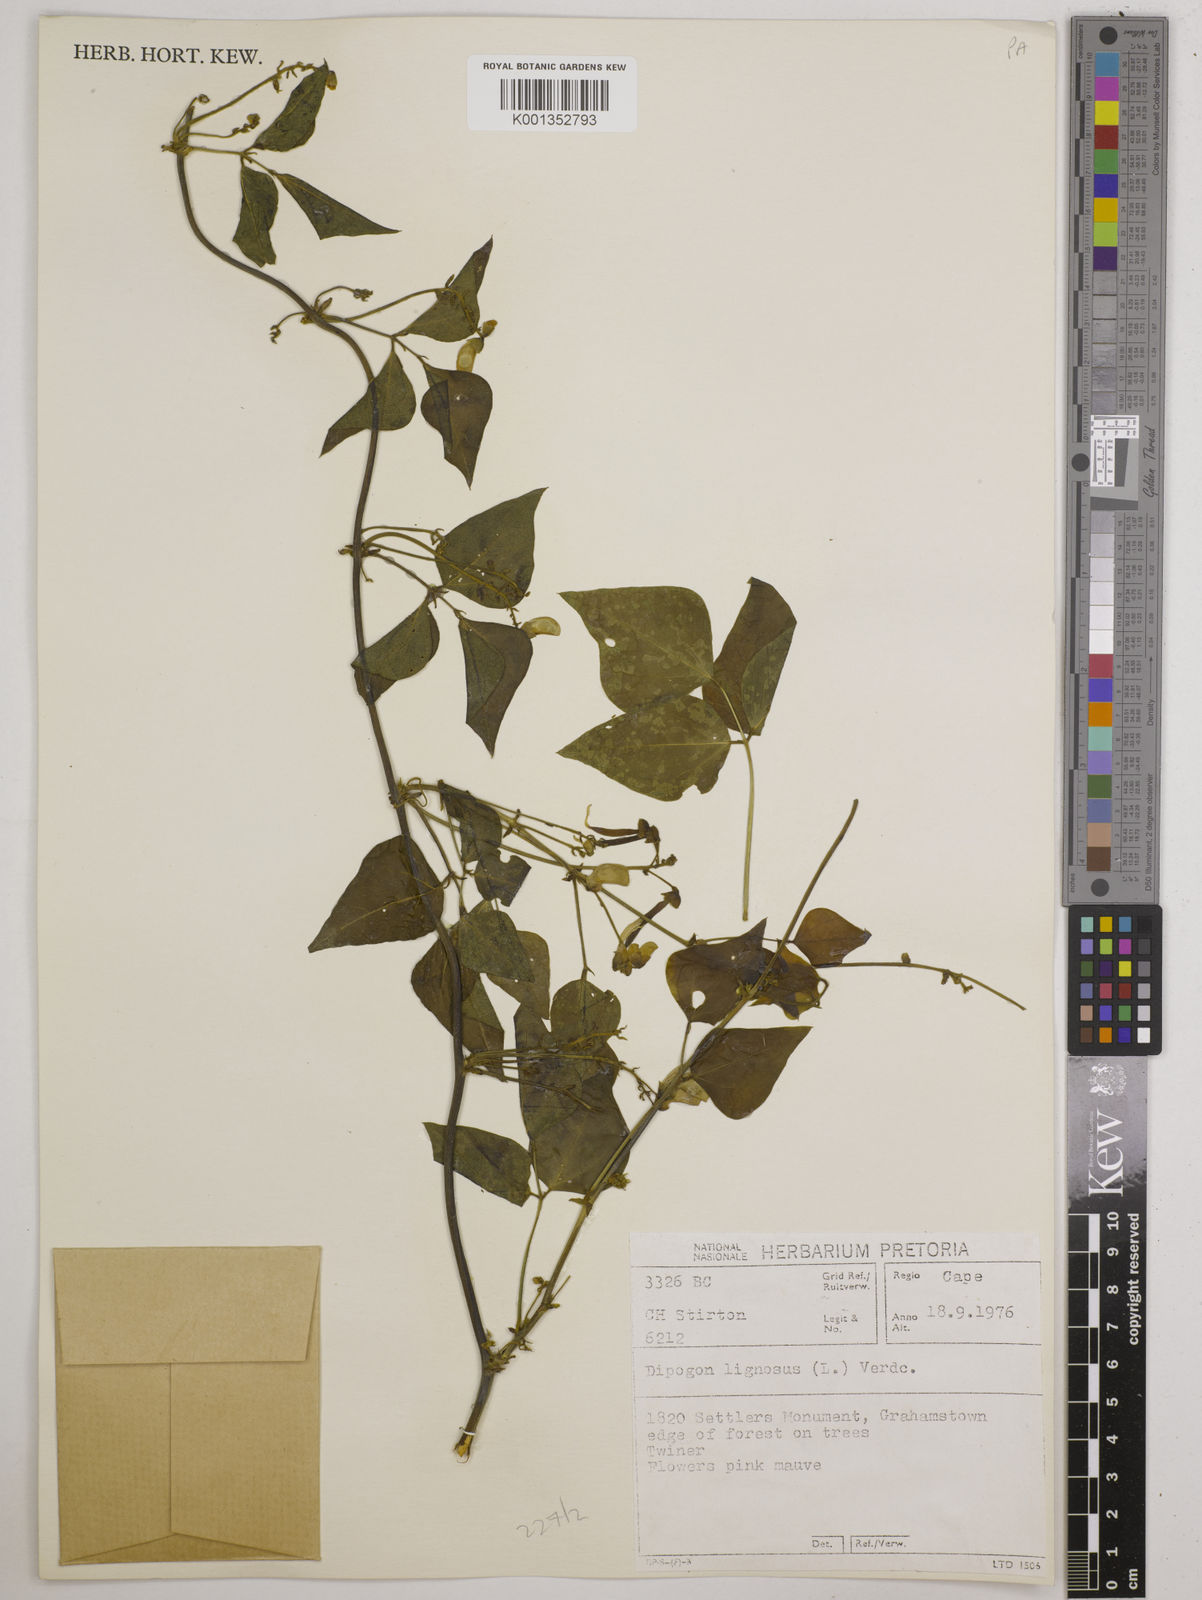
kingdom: Plantae
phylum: Tracheophyta
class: Magnoliopsida
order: Fabales
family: Fabaceae
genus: Dipogon
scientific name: Dipogon lignosus
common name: Okie bean
